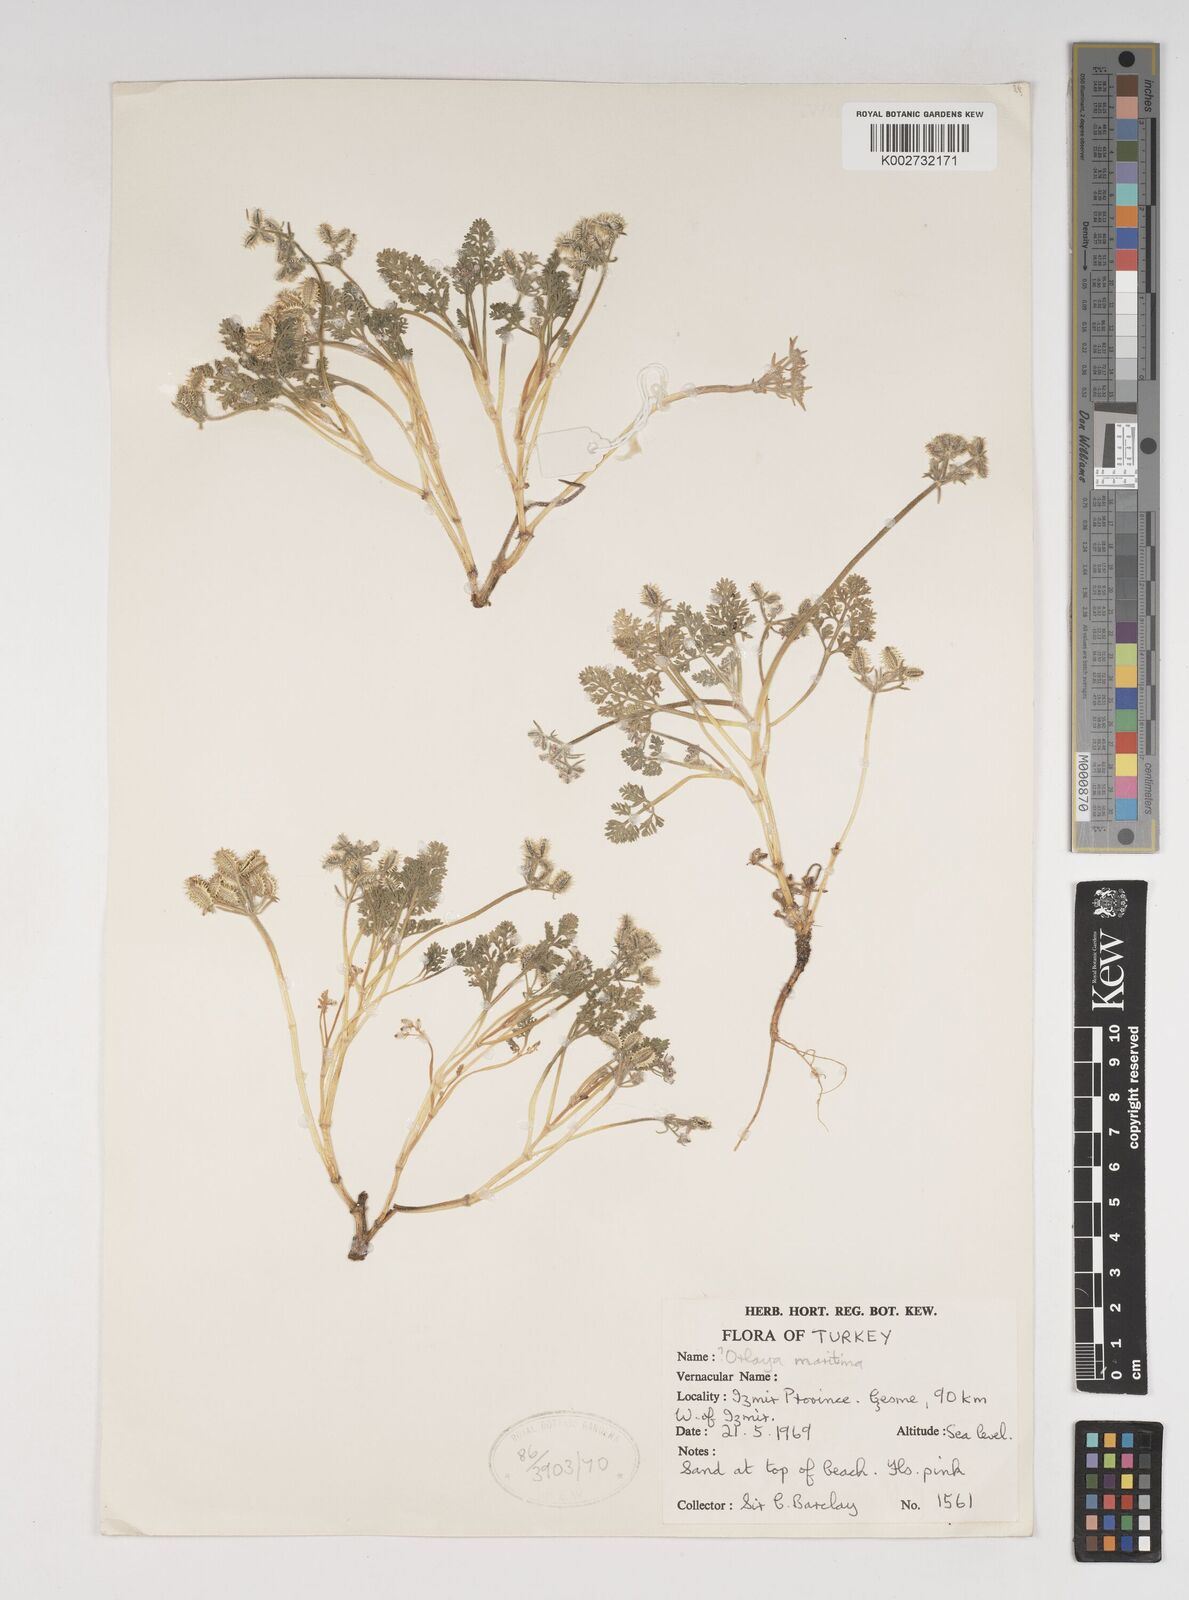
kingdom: Plantae
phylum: Tracheophyta
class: Magnoliopsida
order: Apiales
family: Apiaceae
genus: Daucus
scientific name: Daucus pumilus
